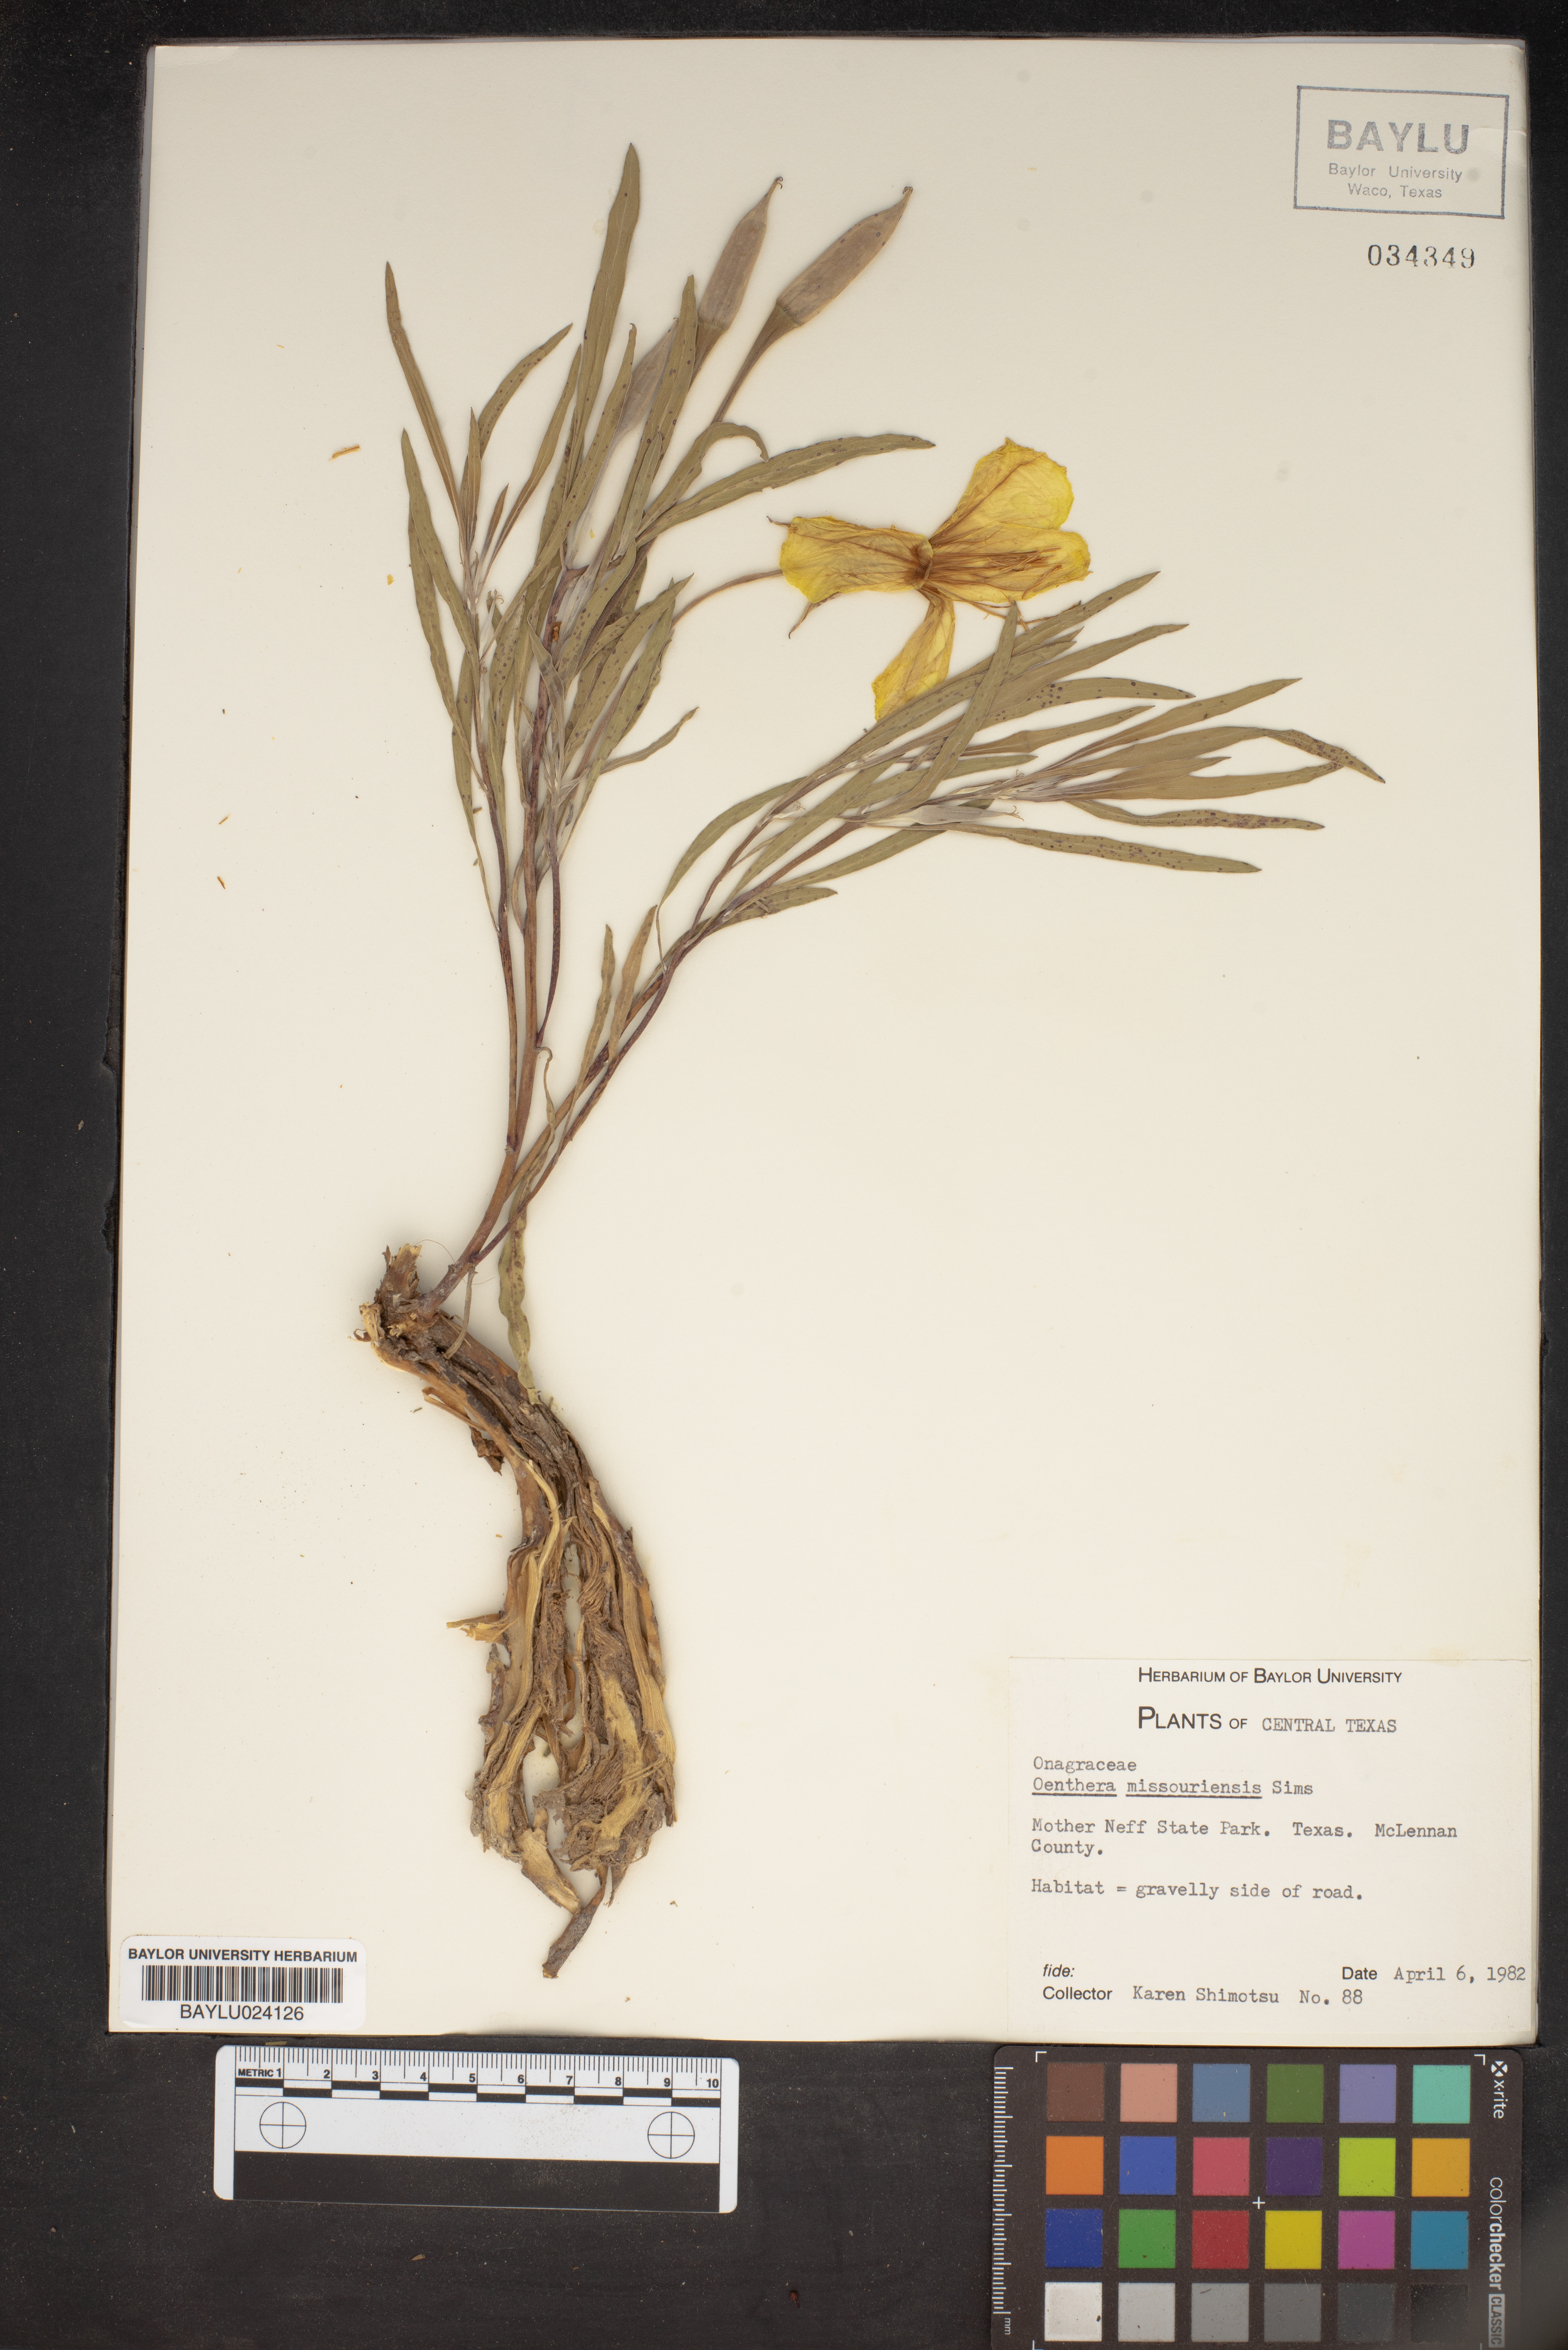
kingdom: Plantae
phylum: Tracheophyta
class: Magnoliopsida
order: Myrtales
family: Onagraceae
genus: Oenothera
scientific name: Oenothera macrocarpa
